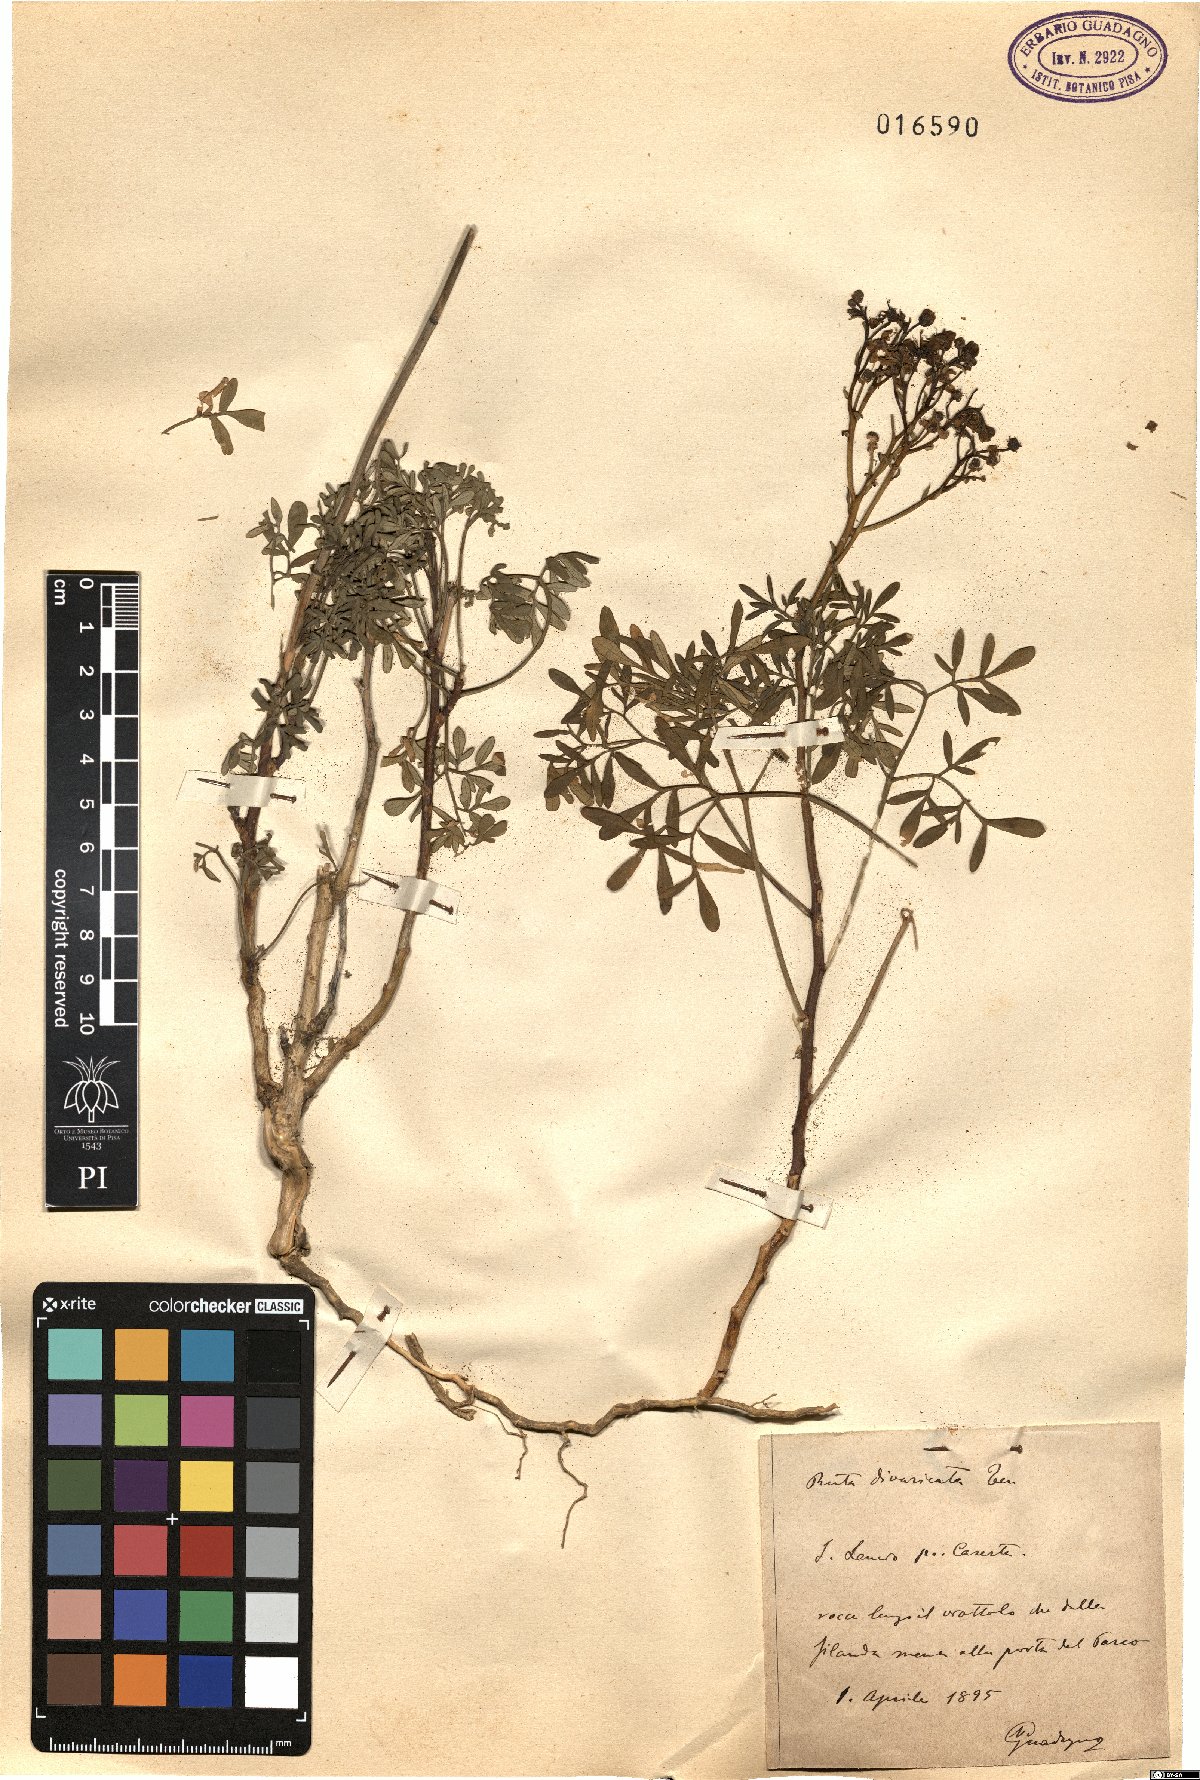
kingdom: Plantae
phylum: Tracheophyta
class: Magnoliopsida
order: Sapindales
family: Rutaceae
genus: Ruta
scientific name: Ruta graveolens
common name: Common rue
